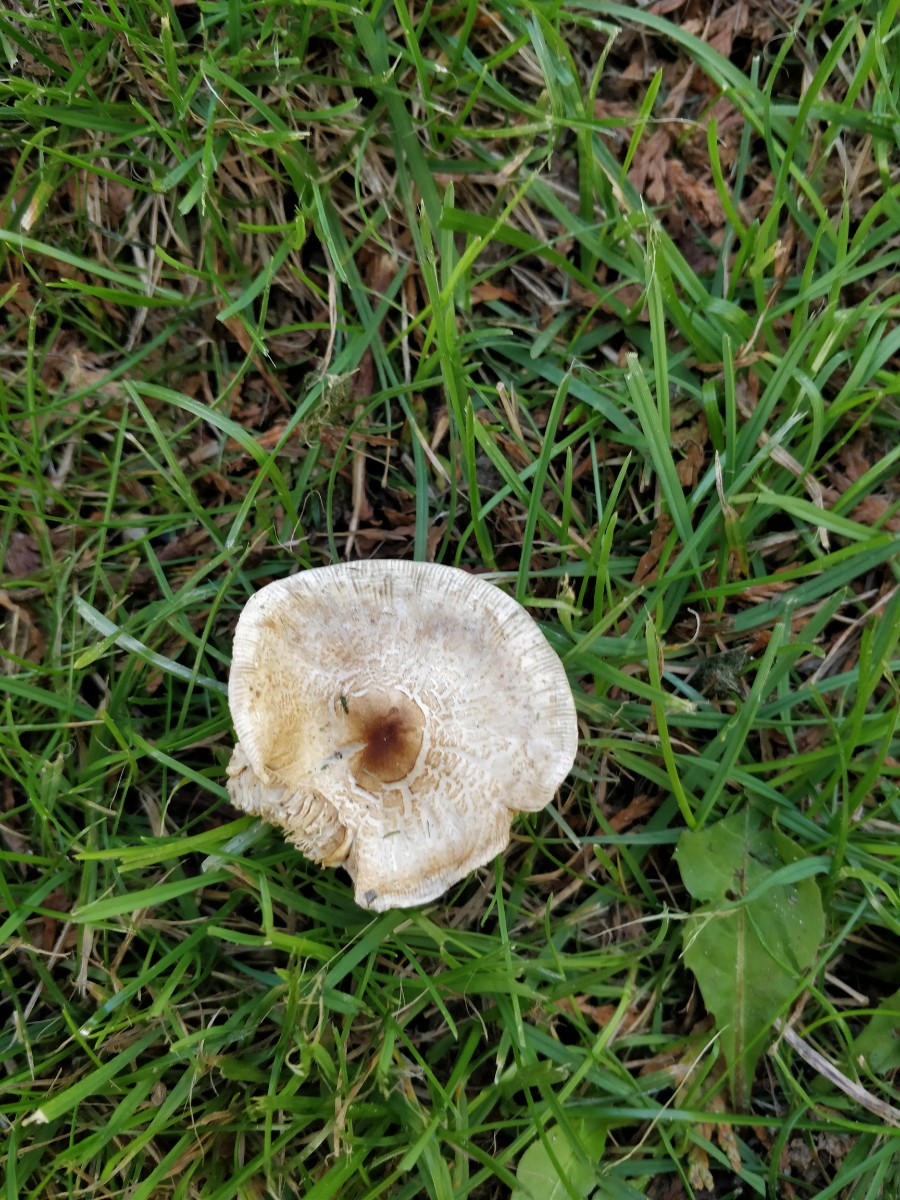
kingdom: Fungi
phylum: Basidiomycota
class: Agaricomycetes
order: Agaricales
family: Agaricaceae
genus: Lepiota
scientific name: Lepiota cristata
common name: stinkende parasolhat
